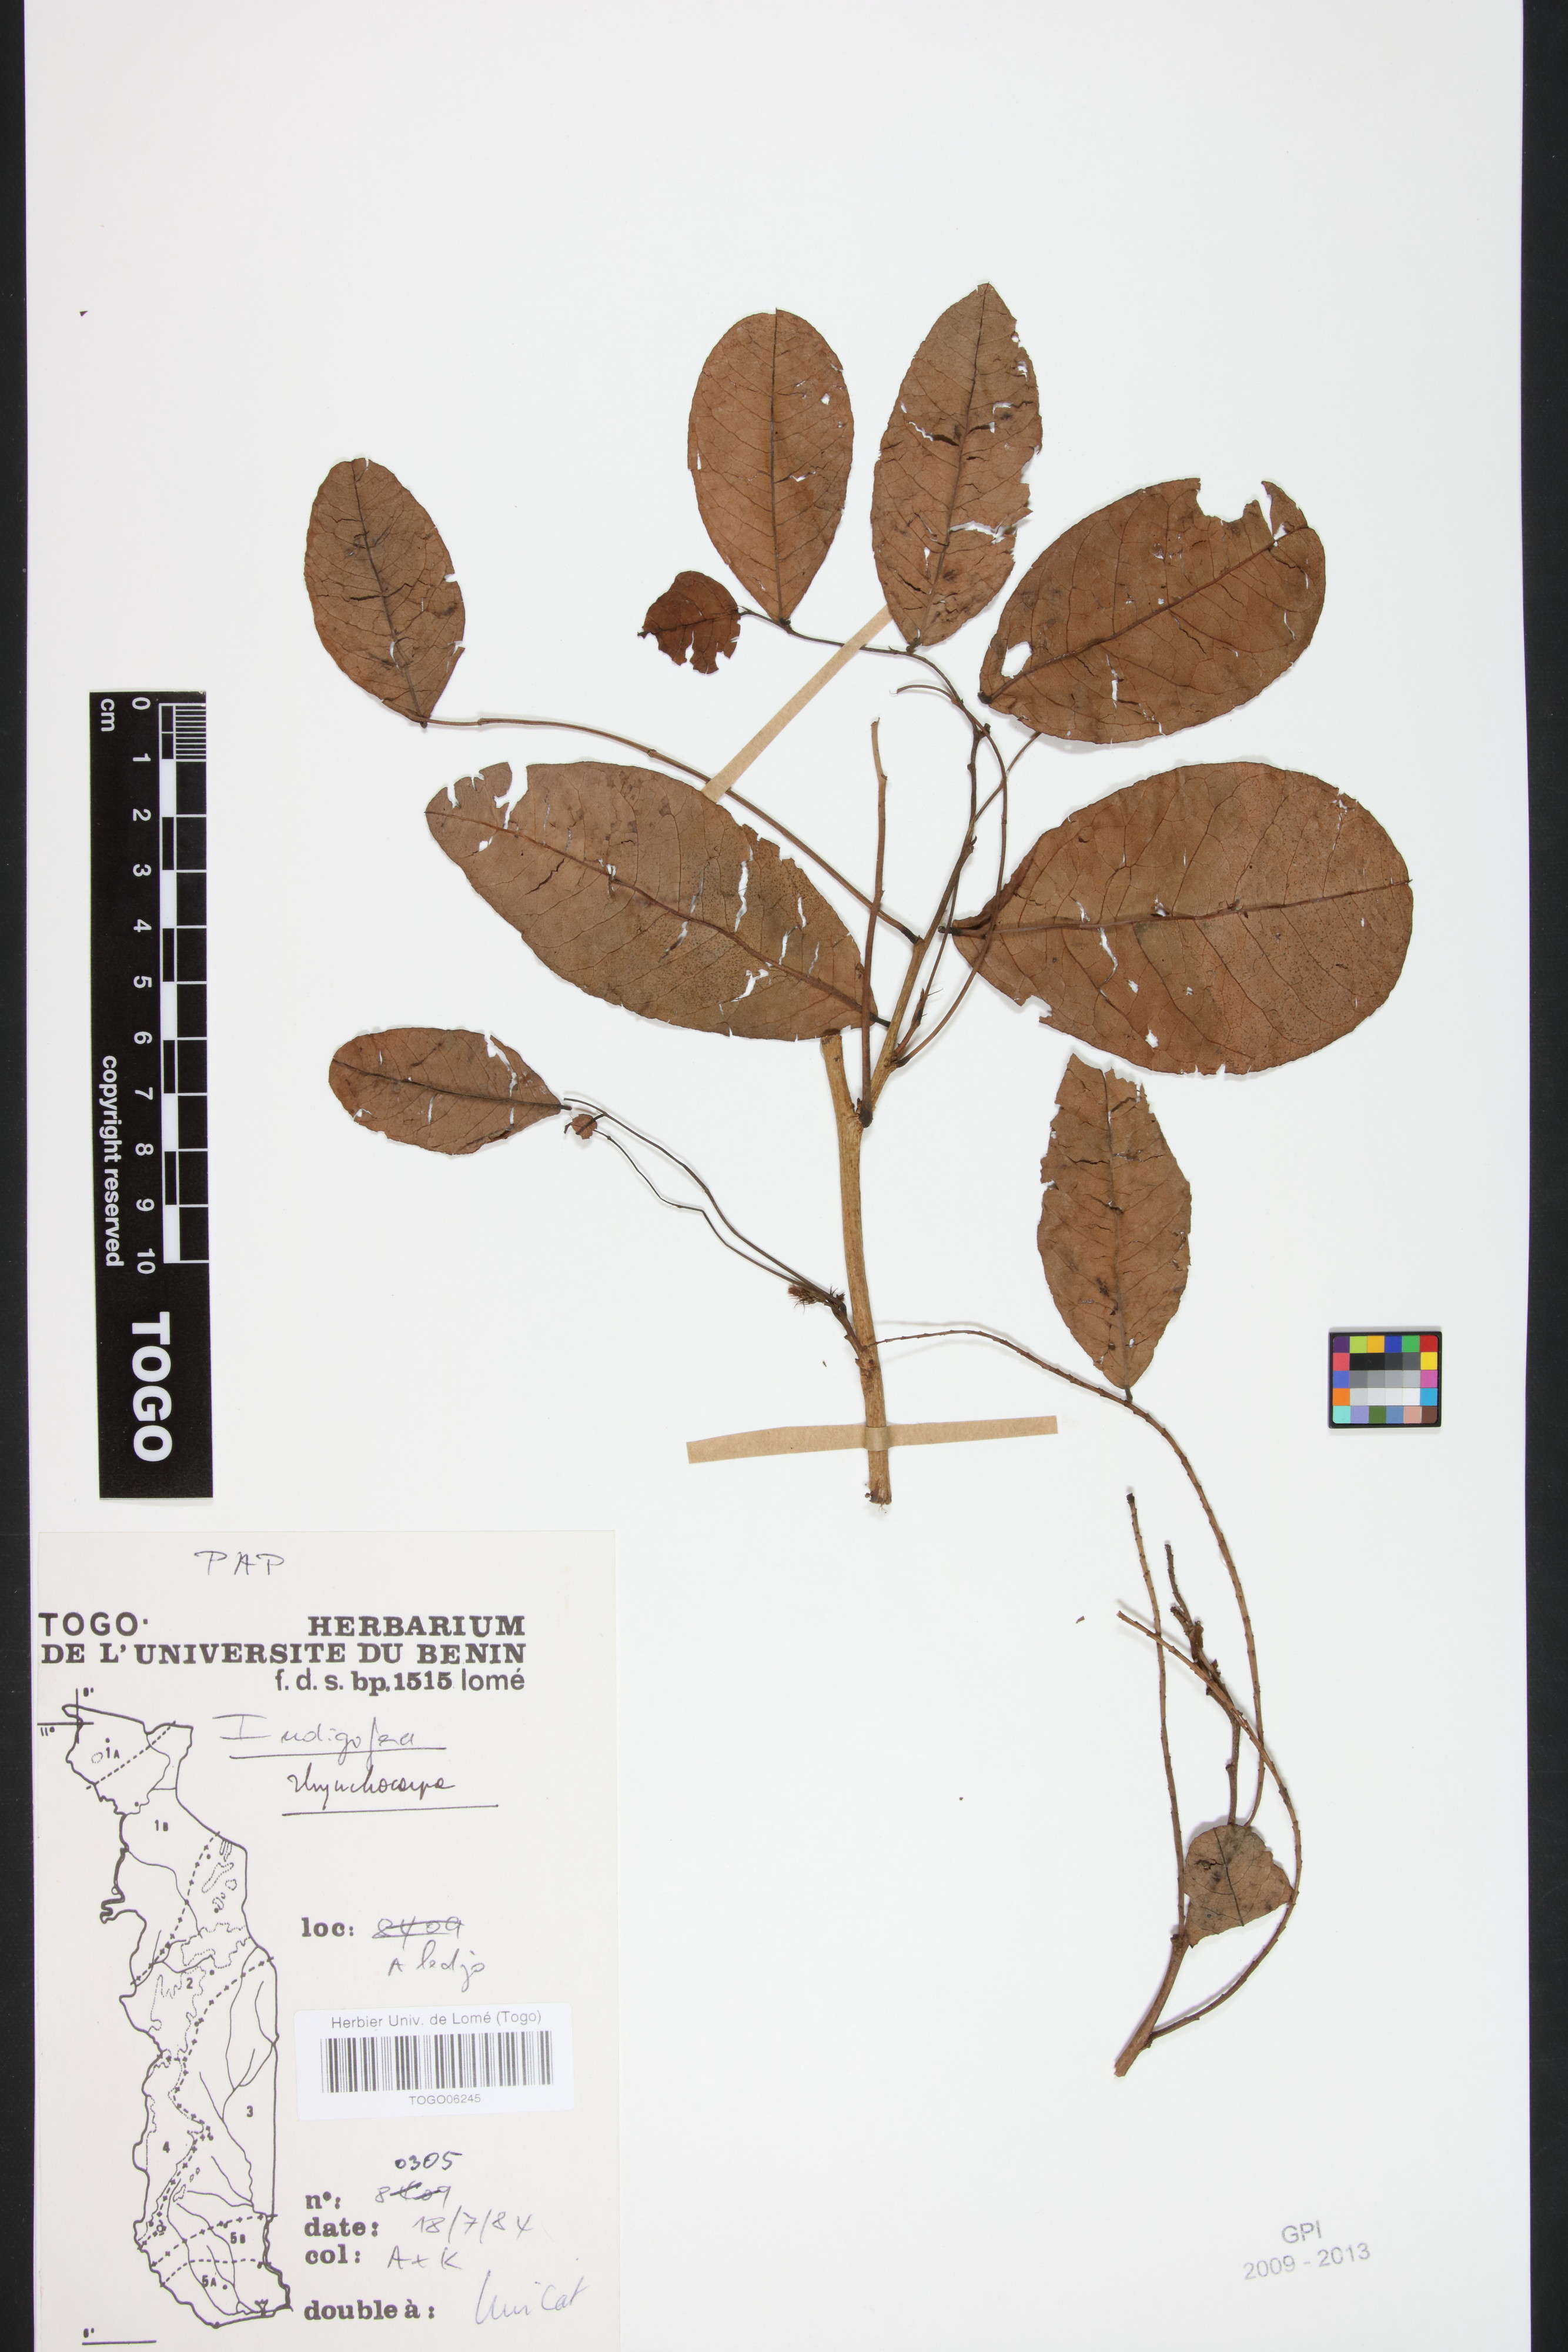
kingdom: Plantae
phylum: Tracheophyta
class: Magnoliopsida
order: Fabales
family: Fabaceae
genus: Indigofera
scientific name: Indigofera rhynchocarpa
